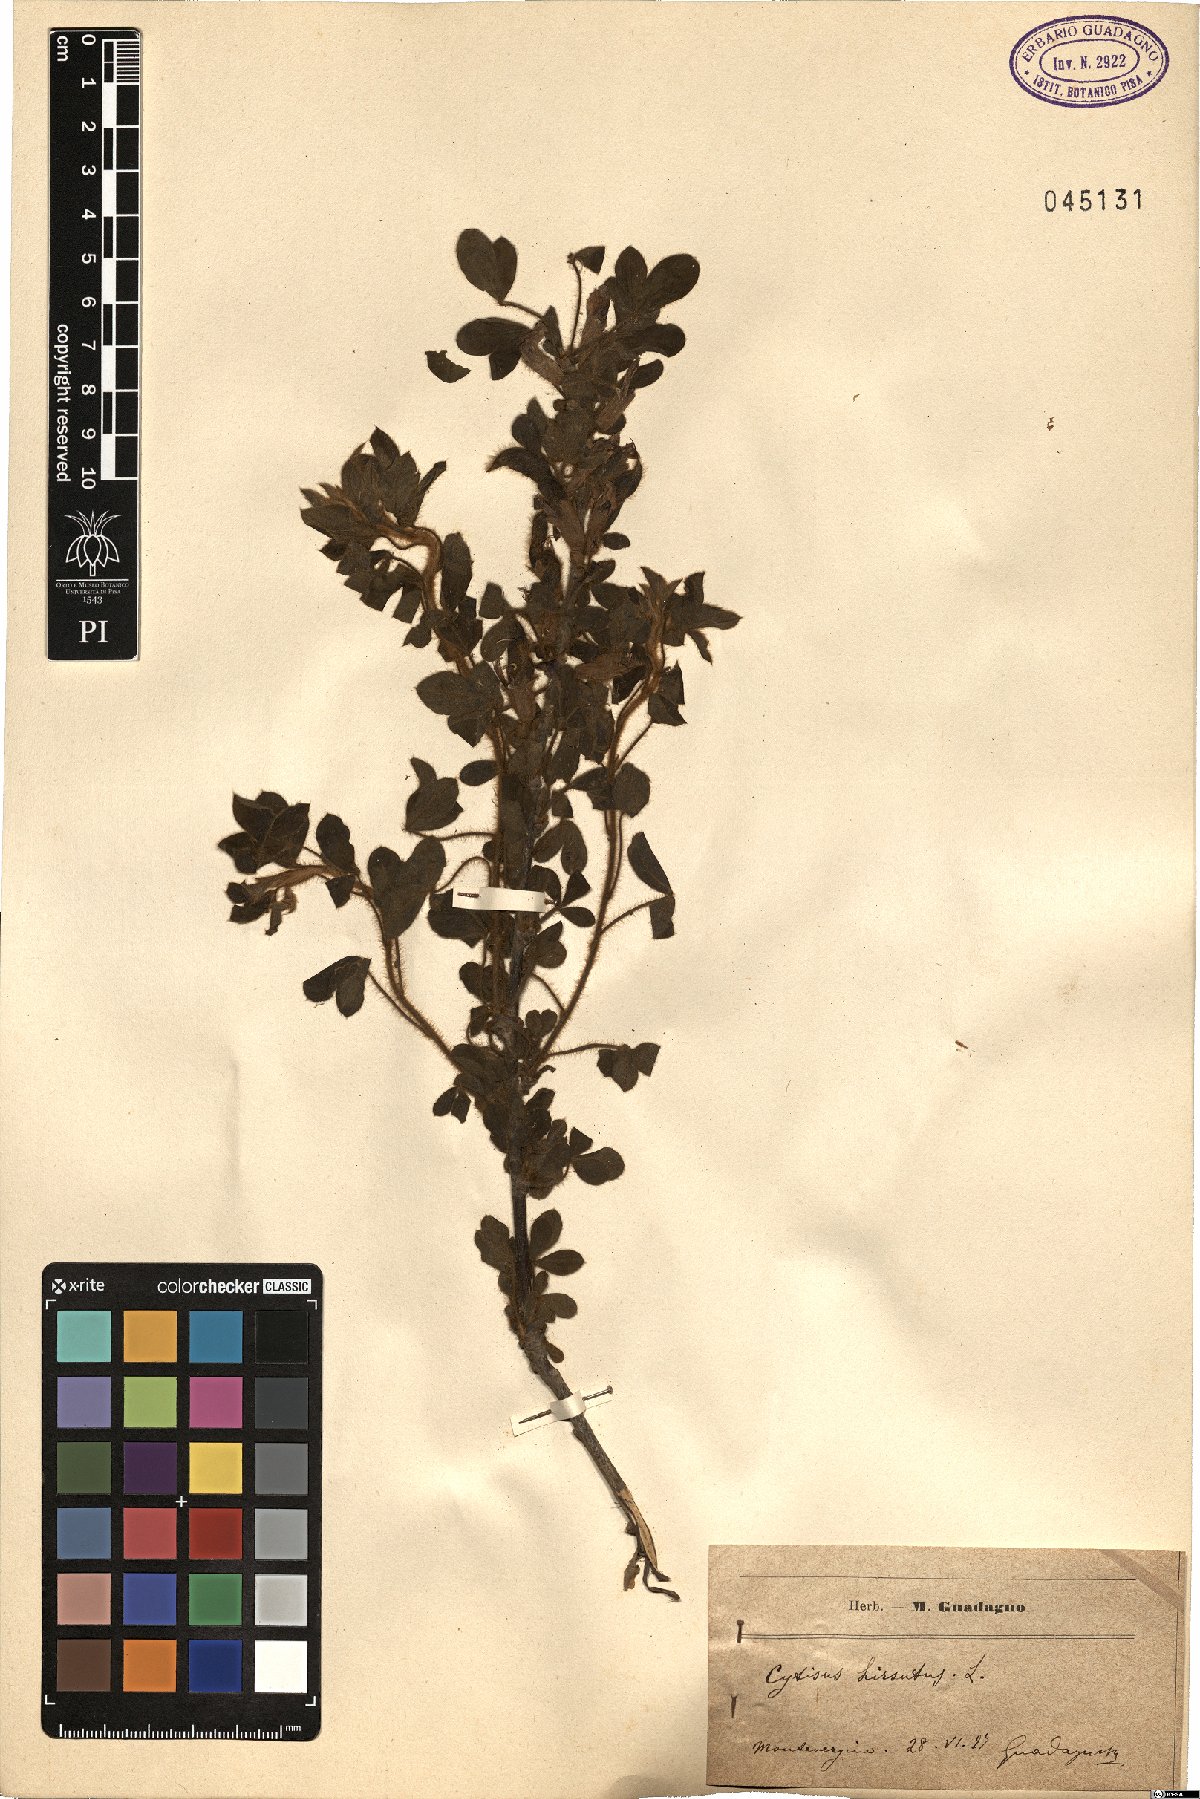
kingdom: Plantae
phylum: Tracheophyta
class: Magnoliopsida
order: Fabales
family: Fabaceae
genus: Chamaecytisus
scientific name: Chamaecytisus hirsutus
